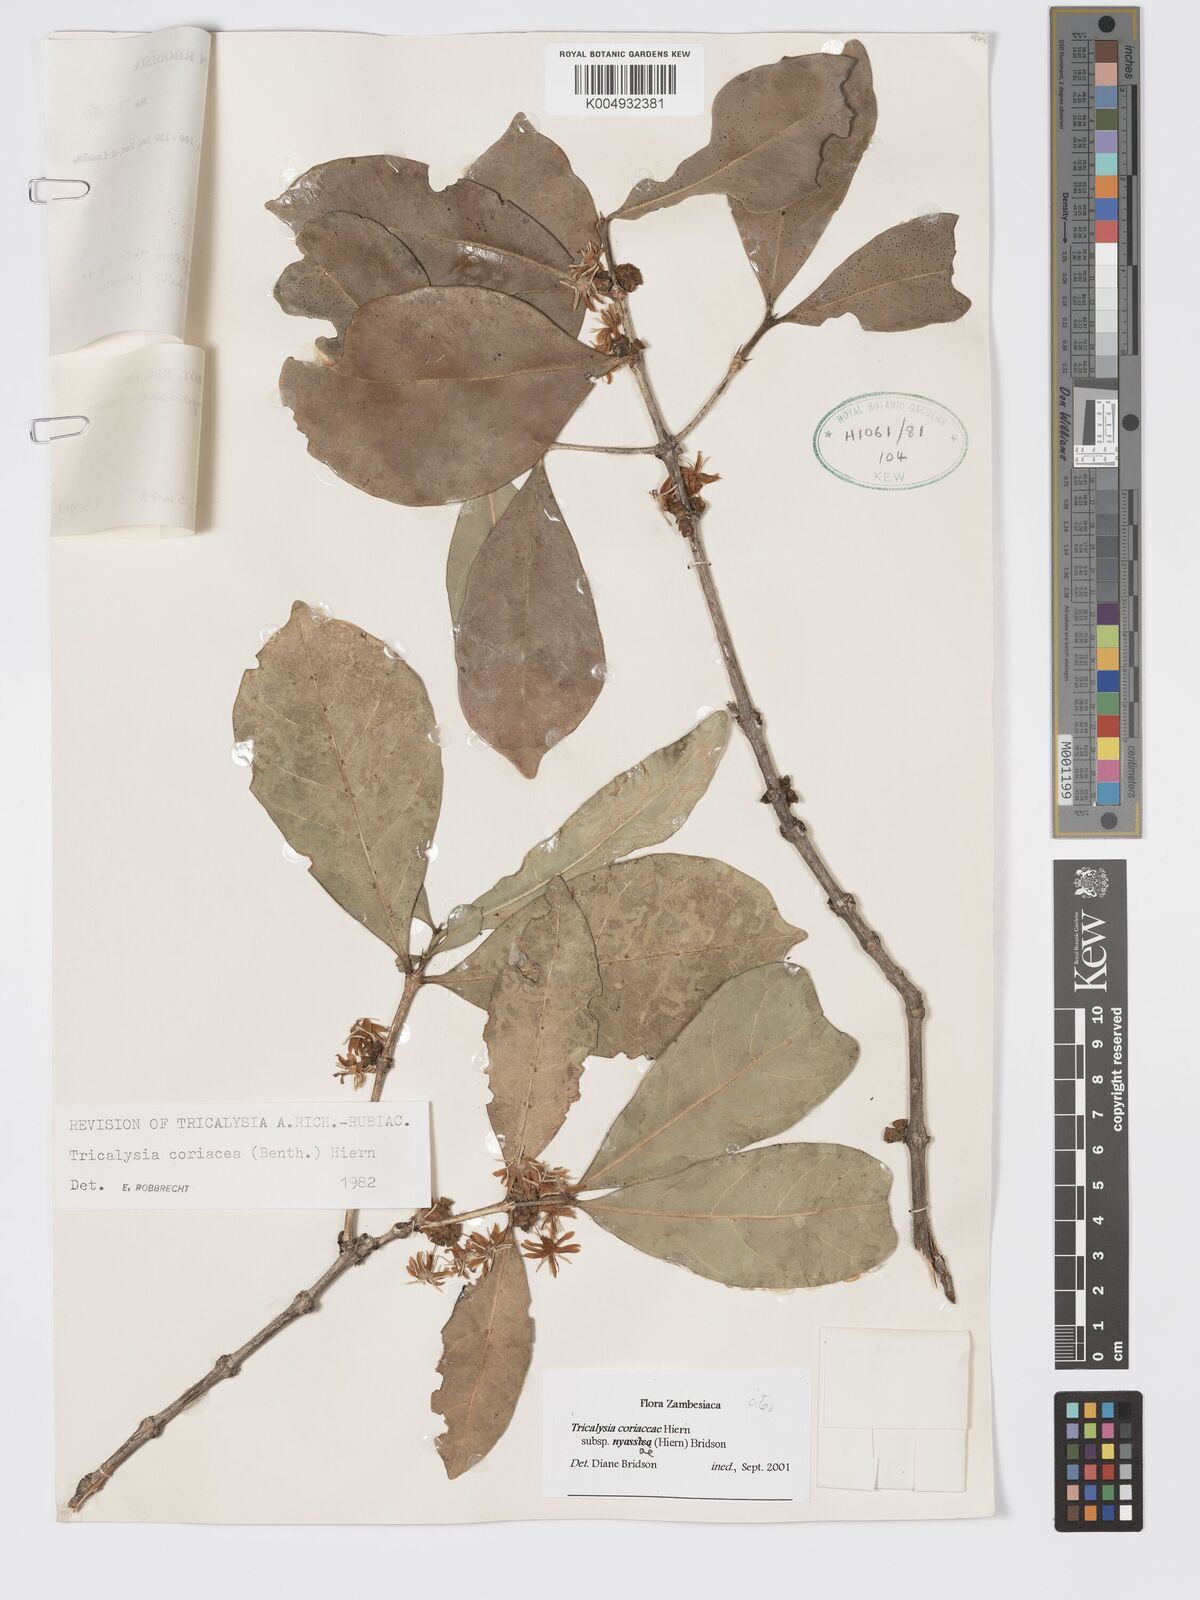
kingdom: Plantae
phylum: Tracheophyta
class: Magnoliopsida
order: Gentianales
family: Rubiaceae
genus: Tricalysia
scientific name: Tricalysia coriacea
